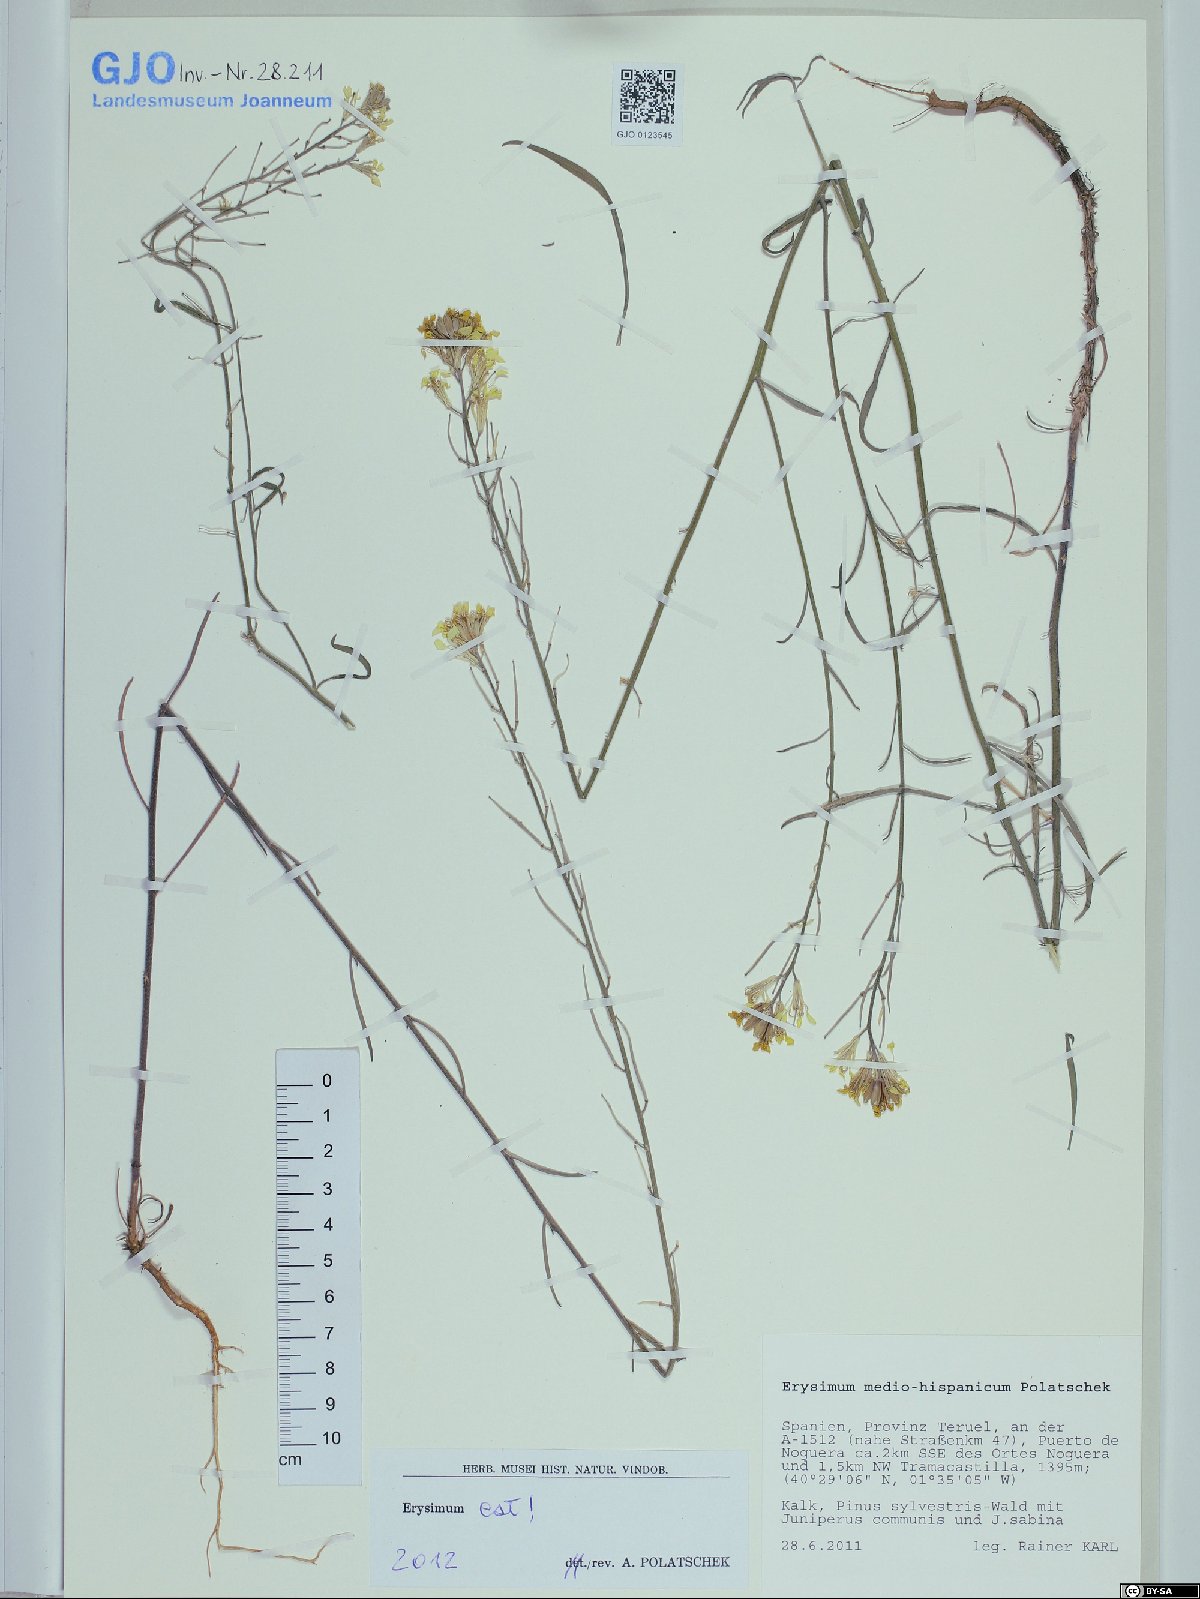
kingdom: Plantae
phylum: Tracheophyta
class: Magnoliopsida
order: Brassicales
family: Brassicaceae
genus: Erysimum
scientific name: Erysimum nevadense
